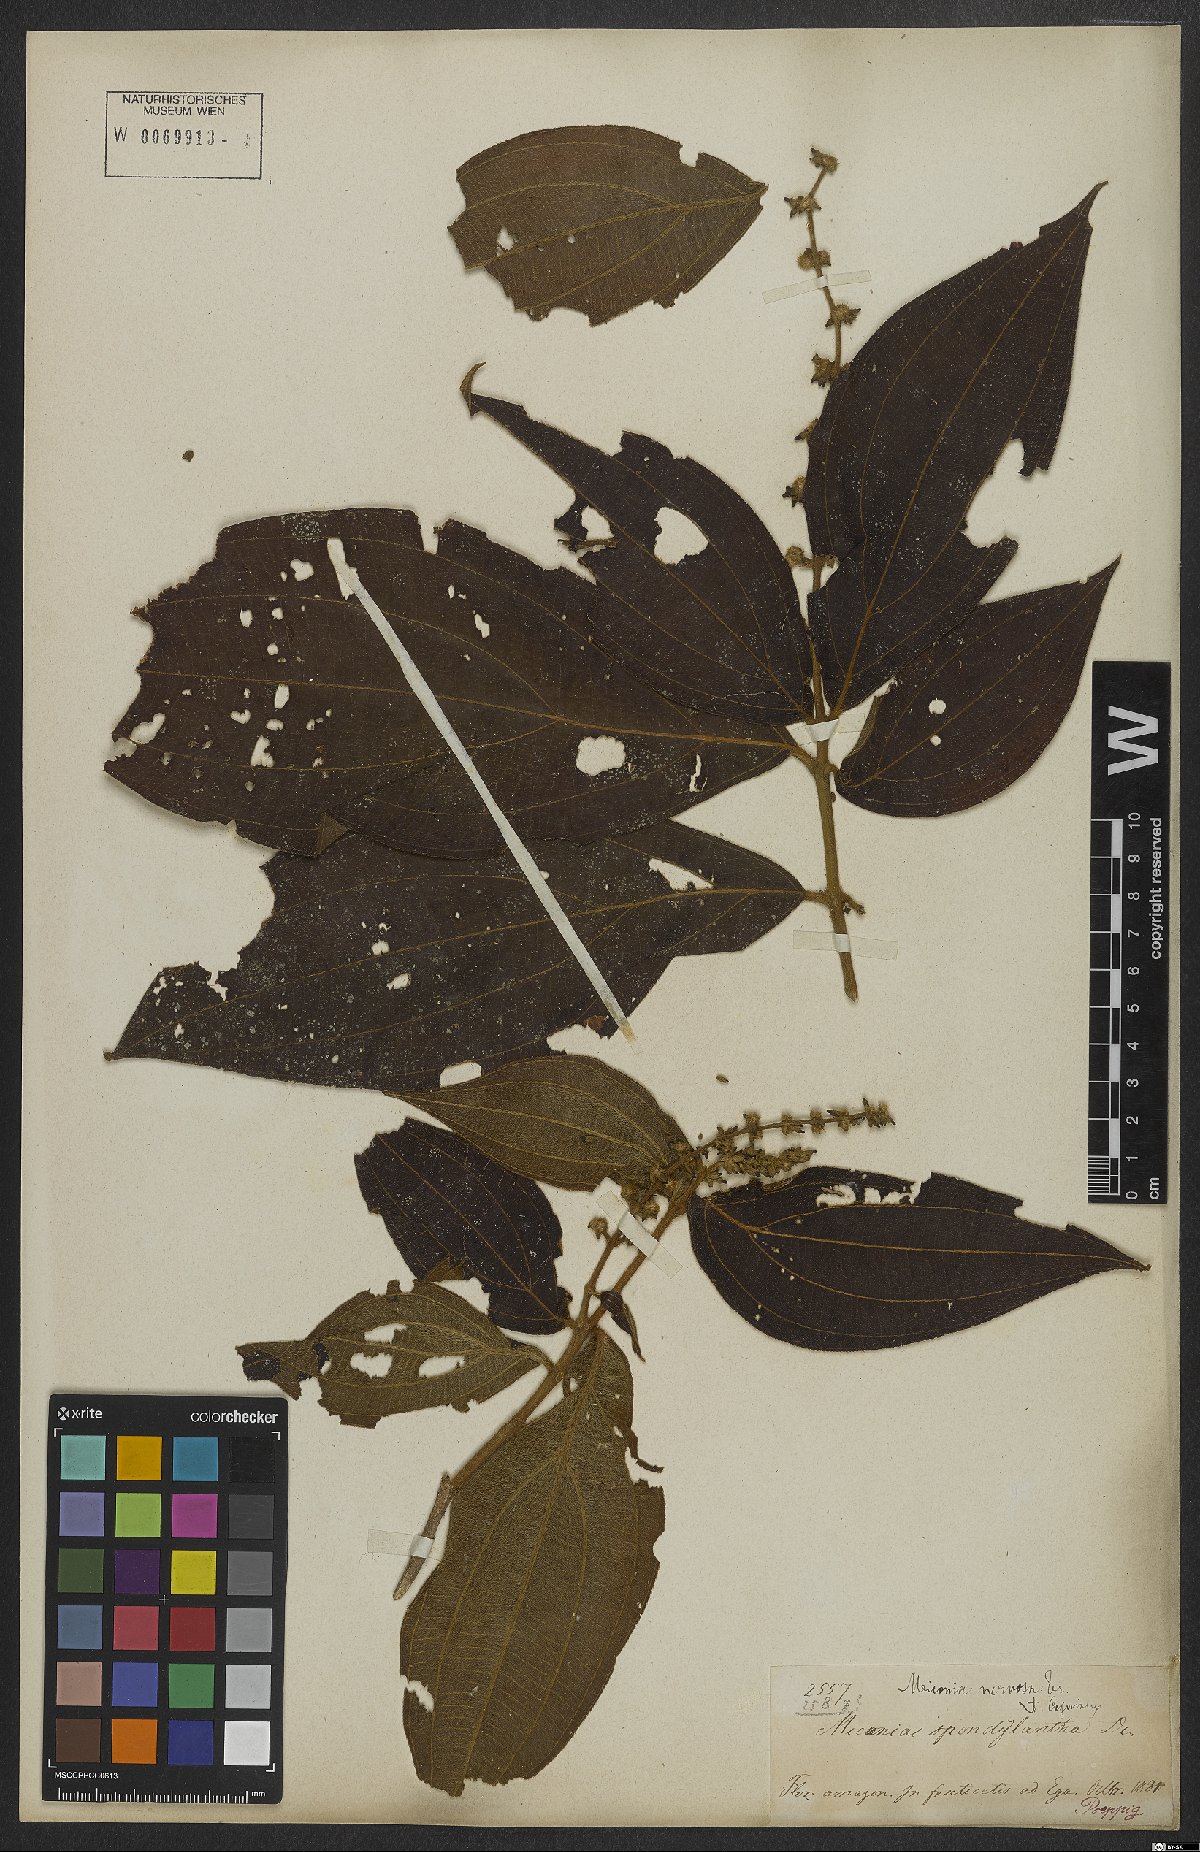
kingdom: Plantae
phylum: Tracheophyta
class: Magnoliopsida
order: Myrtales
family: Melastomataceae
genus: Miconia
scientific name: Miconia nervosa
